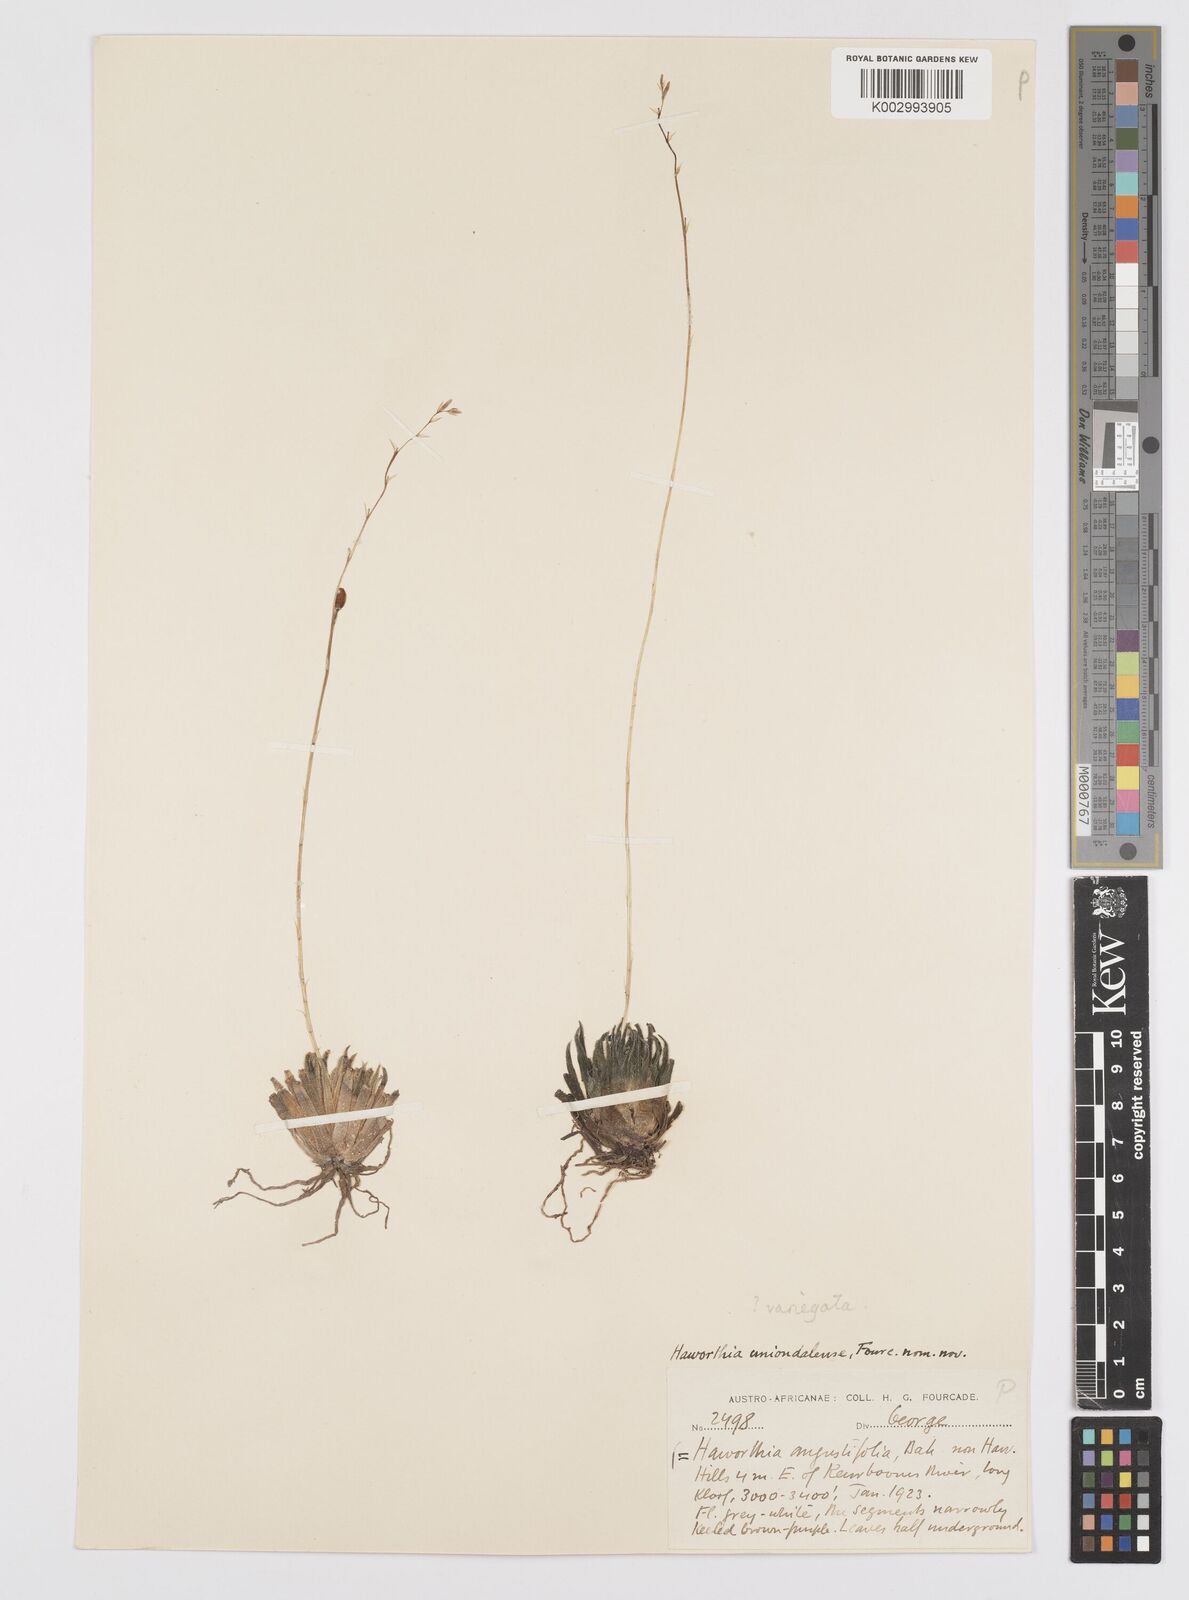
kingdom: Plantae
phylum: Tracheophyta
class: Liliopsida
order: Asparagales
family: Asphodelaceae
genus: Haworthia
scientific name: Haworthia
